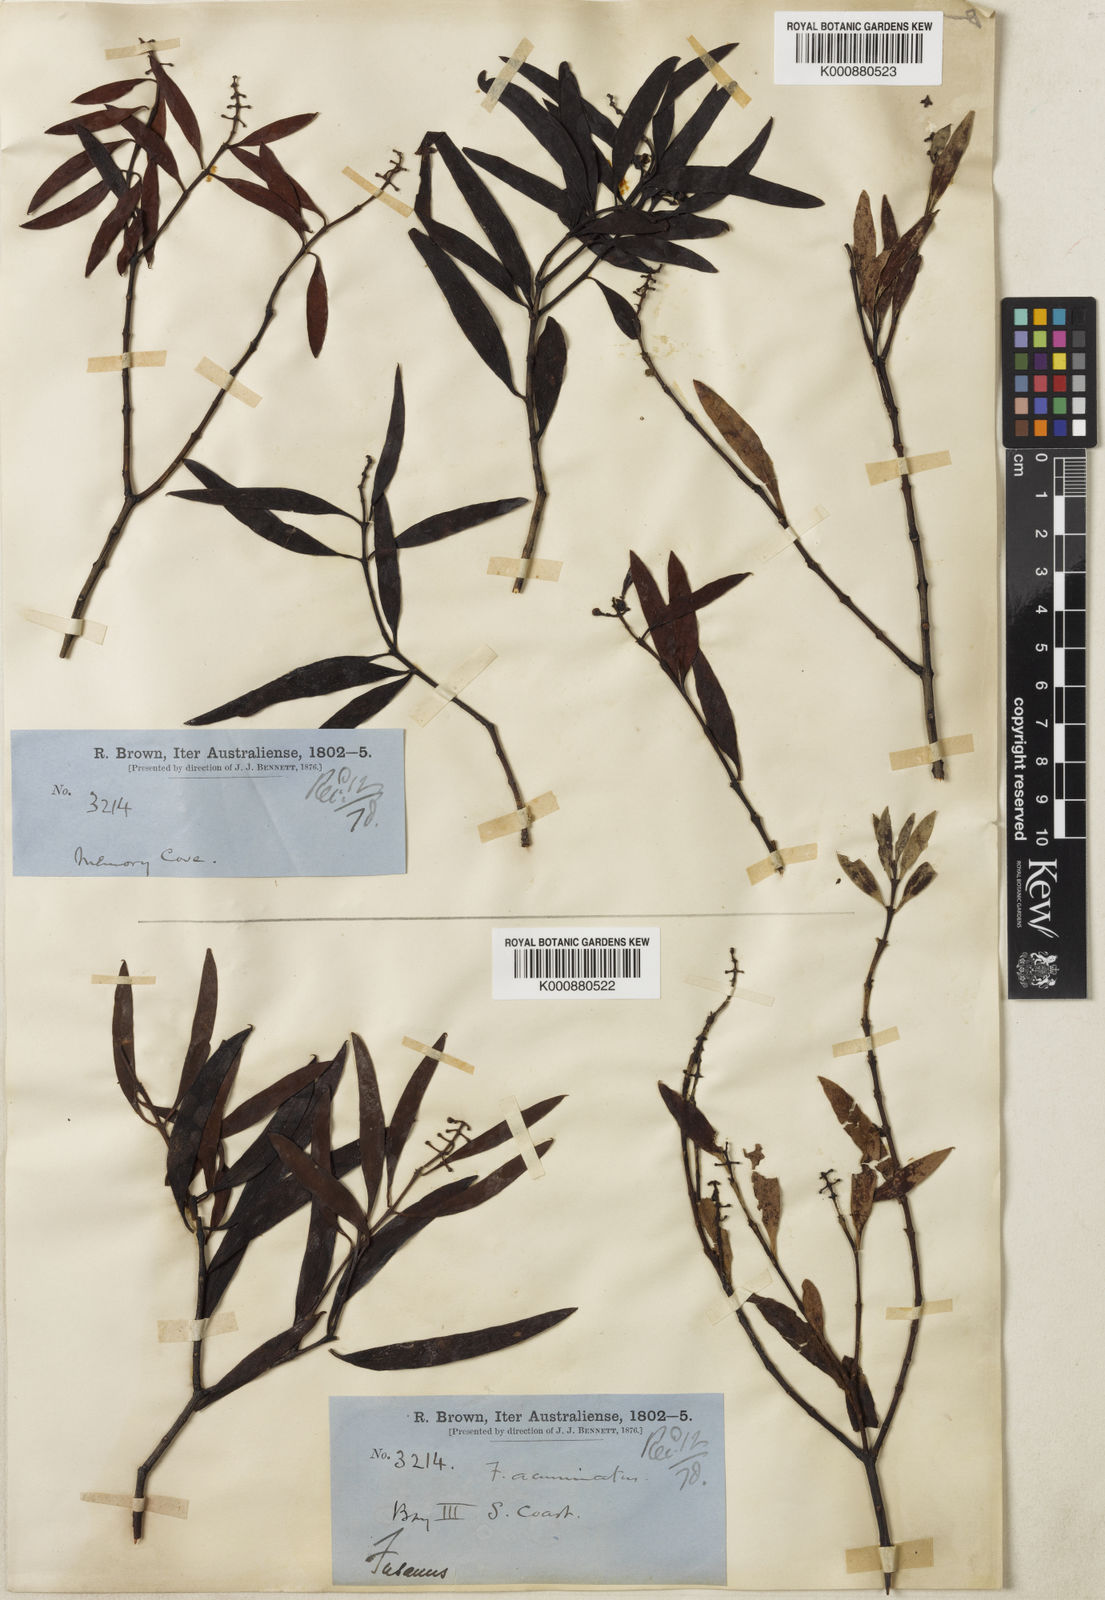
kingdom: Plantae
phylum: Tracheophyta
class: Magnoliopsida
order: Santalales
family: Santalaceae
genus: Santalum
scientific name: Santalum acuminatum
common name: Sweet quandong
